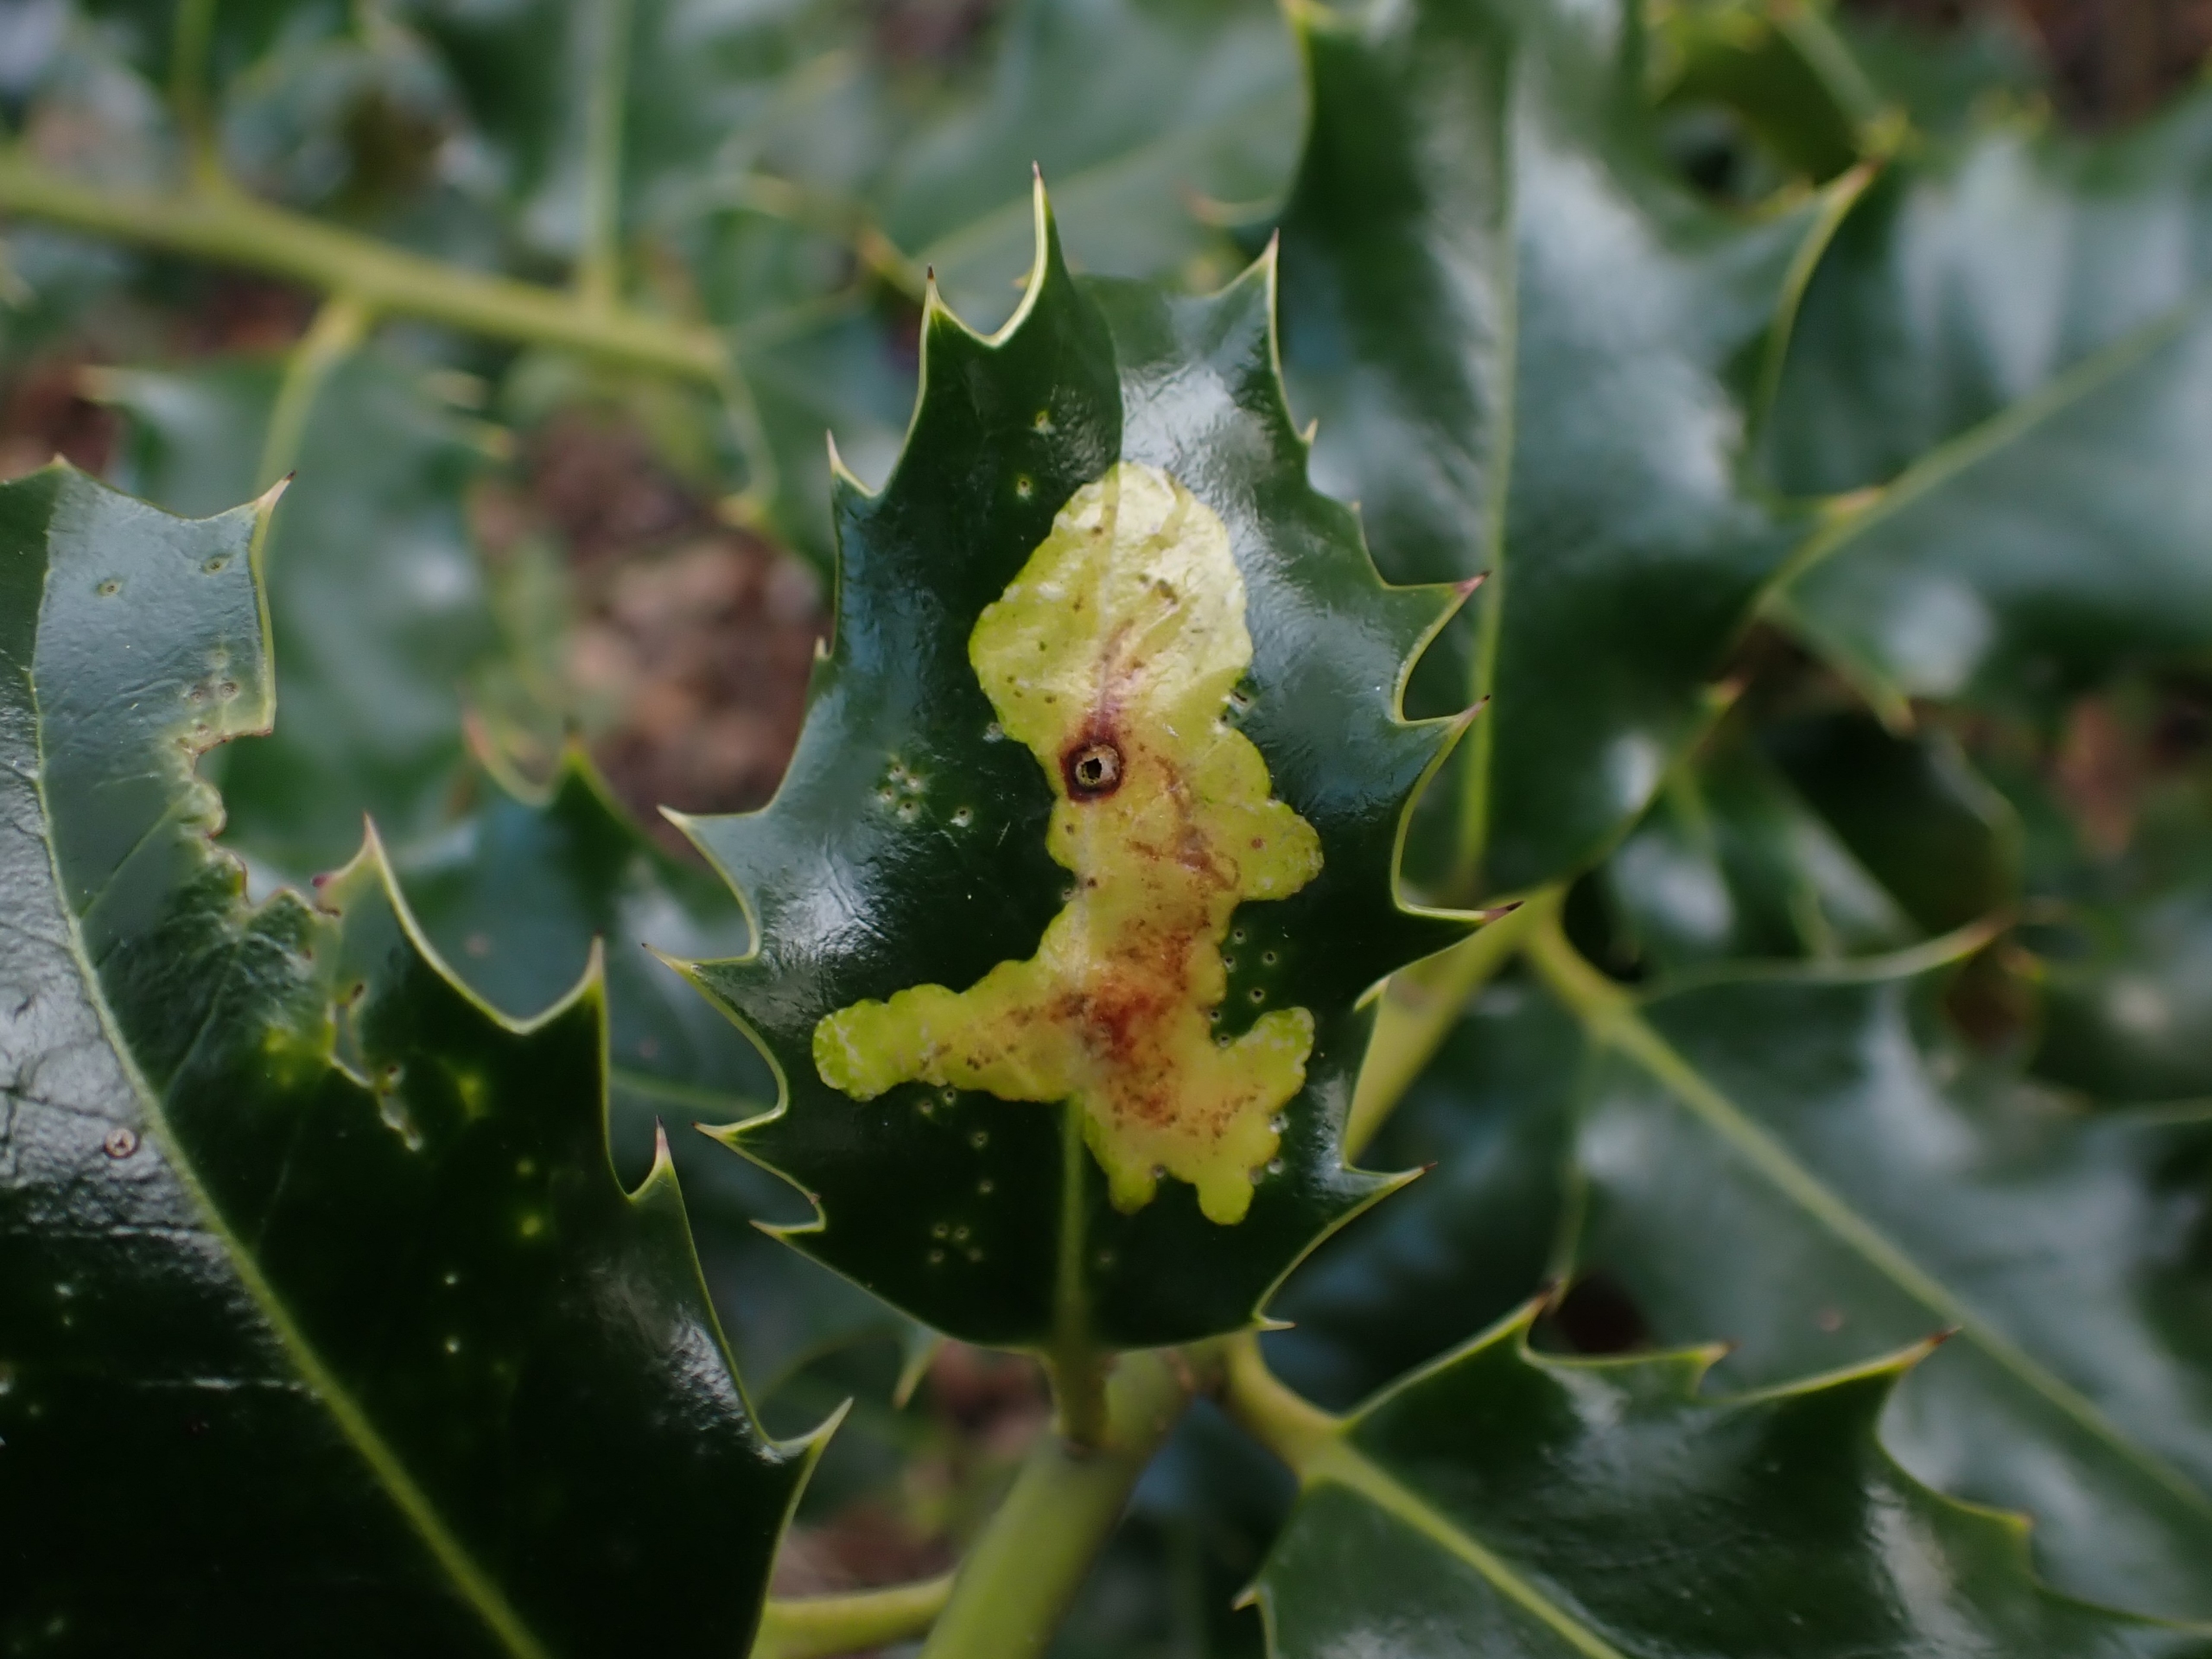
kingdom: Animalia
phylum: Arthropoda
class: Insecta
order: Diptera
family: Agromyzidae
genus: Phytomyza
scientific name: Phytomyza ilicis
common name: Kristtornminérflue
